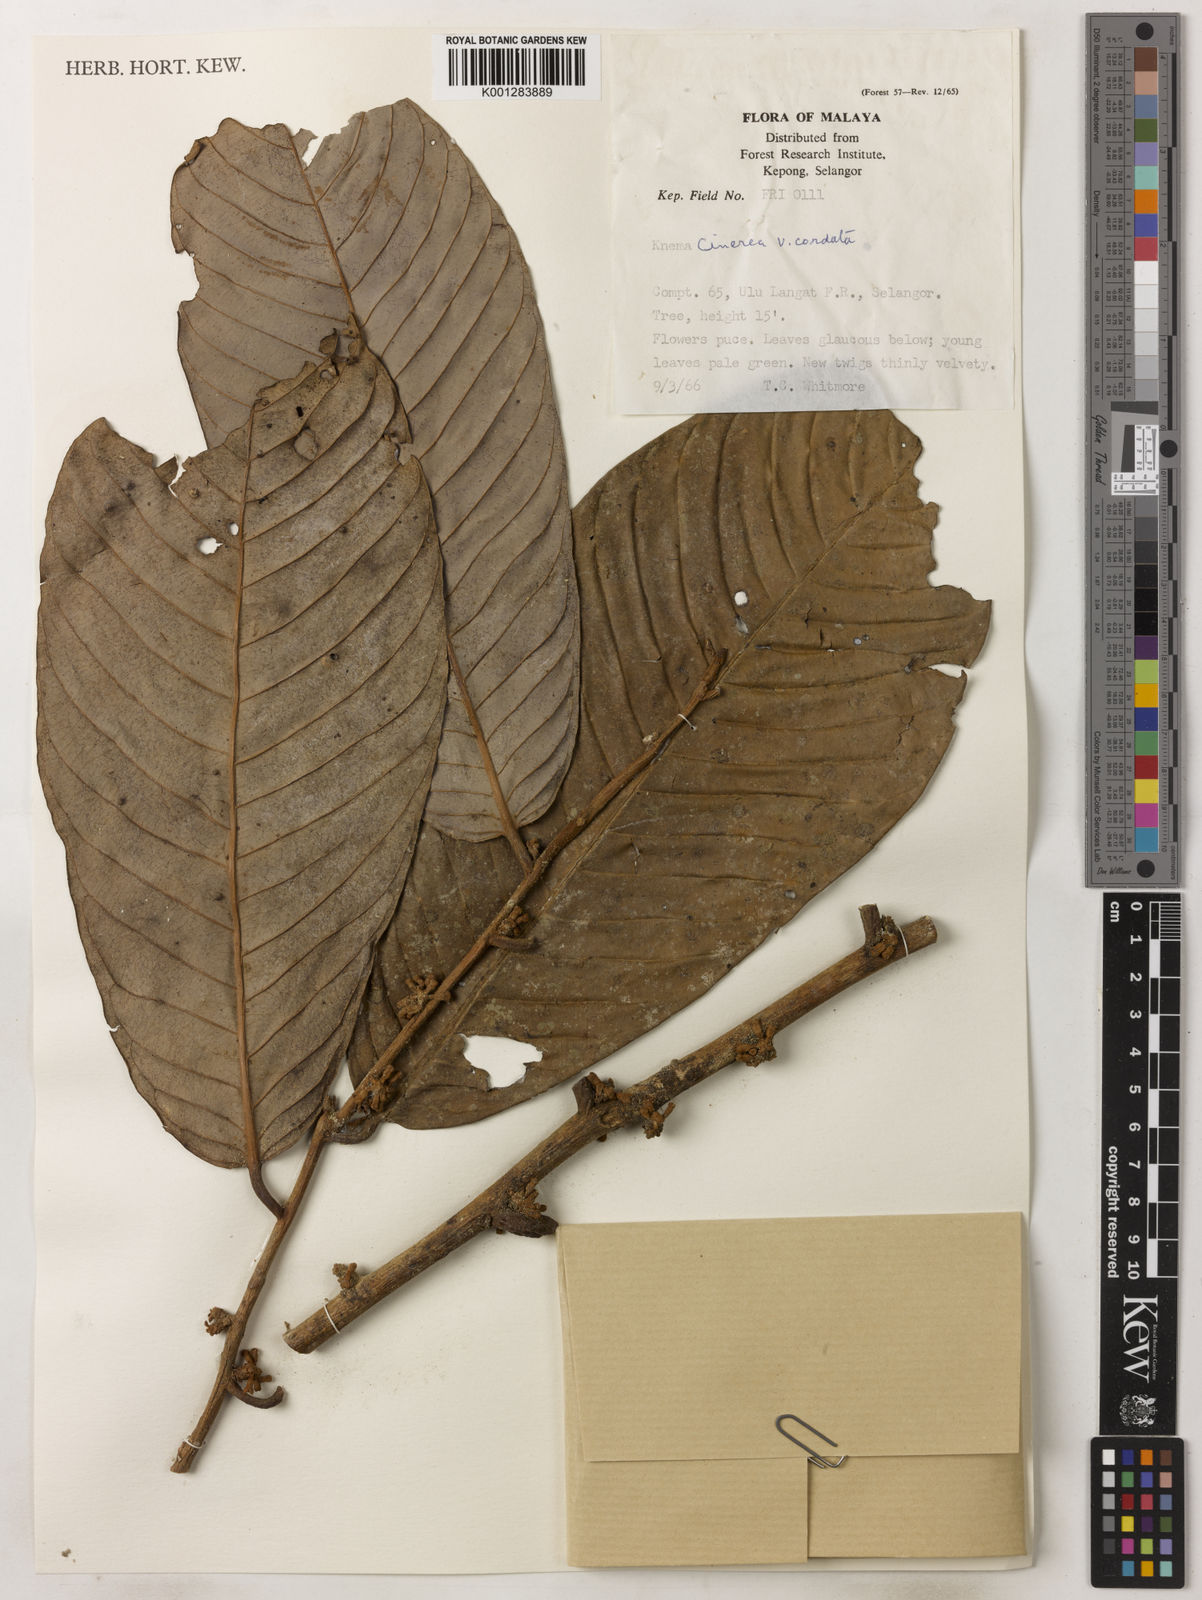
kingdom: Plantae
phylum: Tracheophyta
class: Magnoliopsida
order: Magnoliales
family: Myristicaceae
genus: Knema
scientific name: Knema
